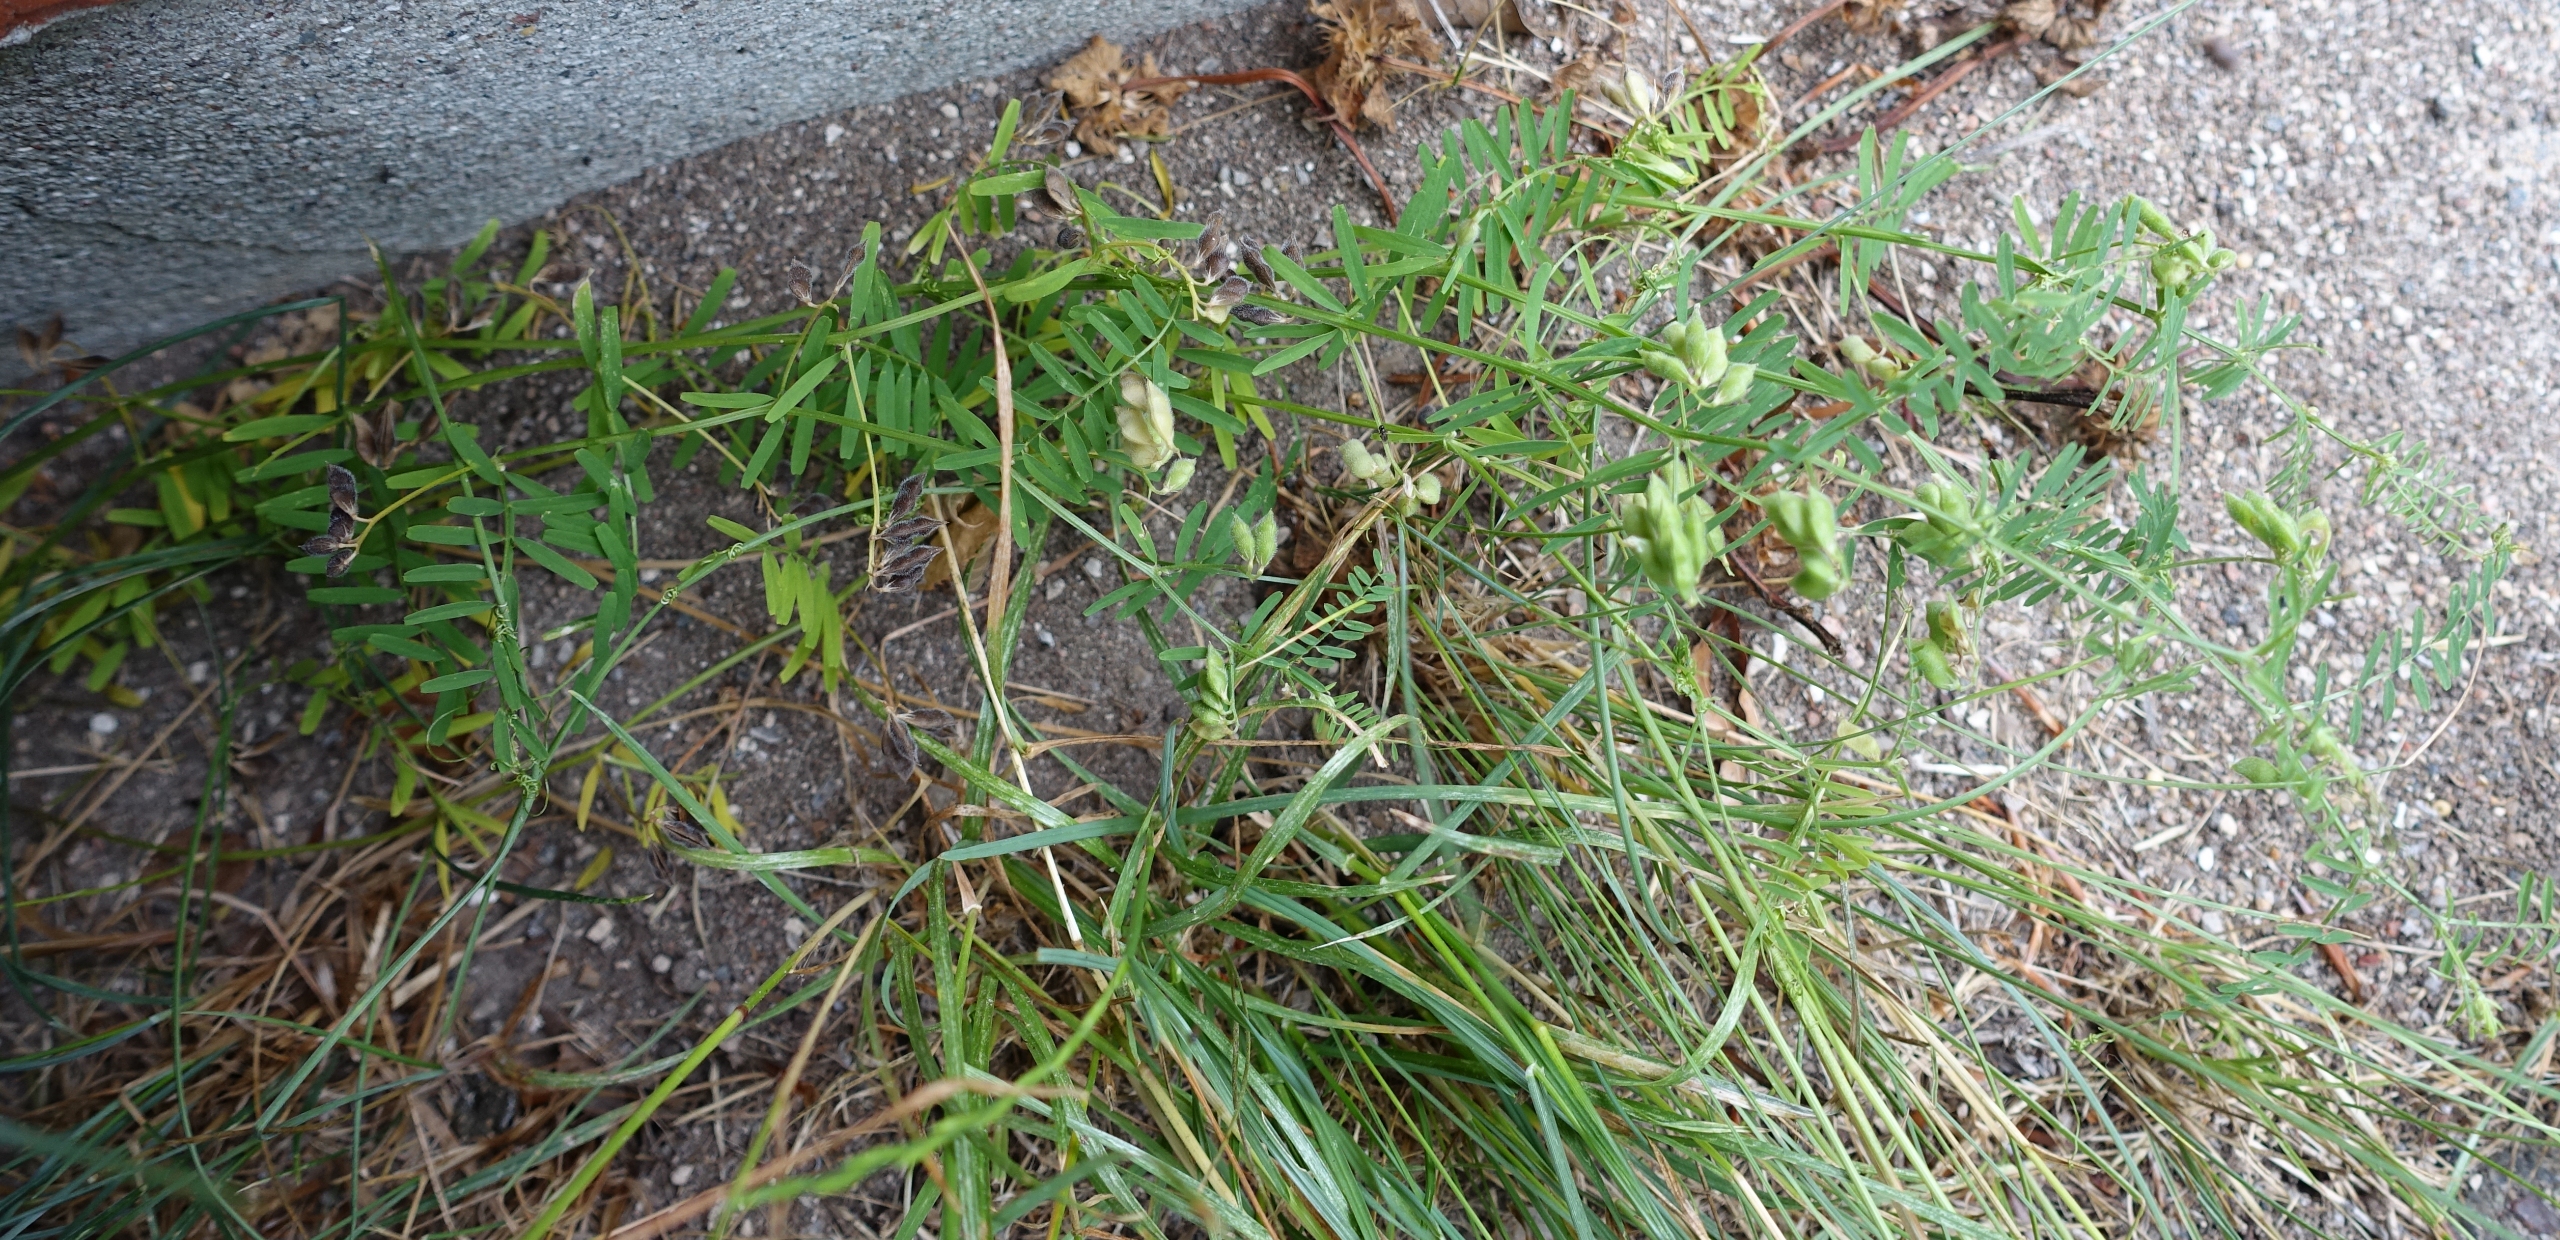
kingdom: Plantae
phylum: Tracheophyta
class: Magnoliopsida
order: Fabales
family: Fabaceae
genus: Vicia
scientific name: Vicia hirsuta
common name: Tofrøet vikke
